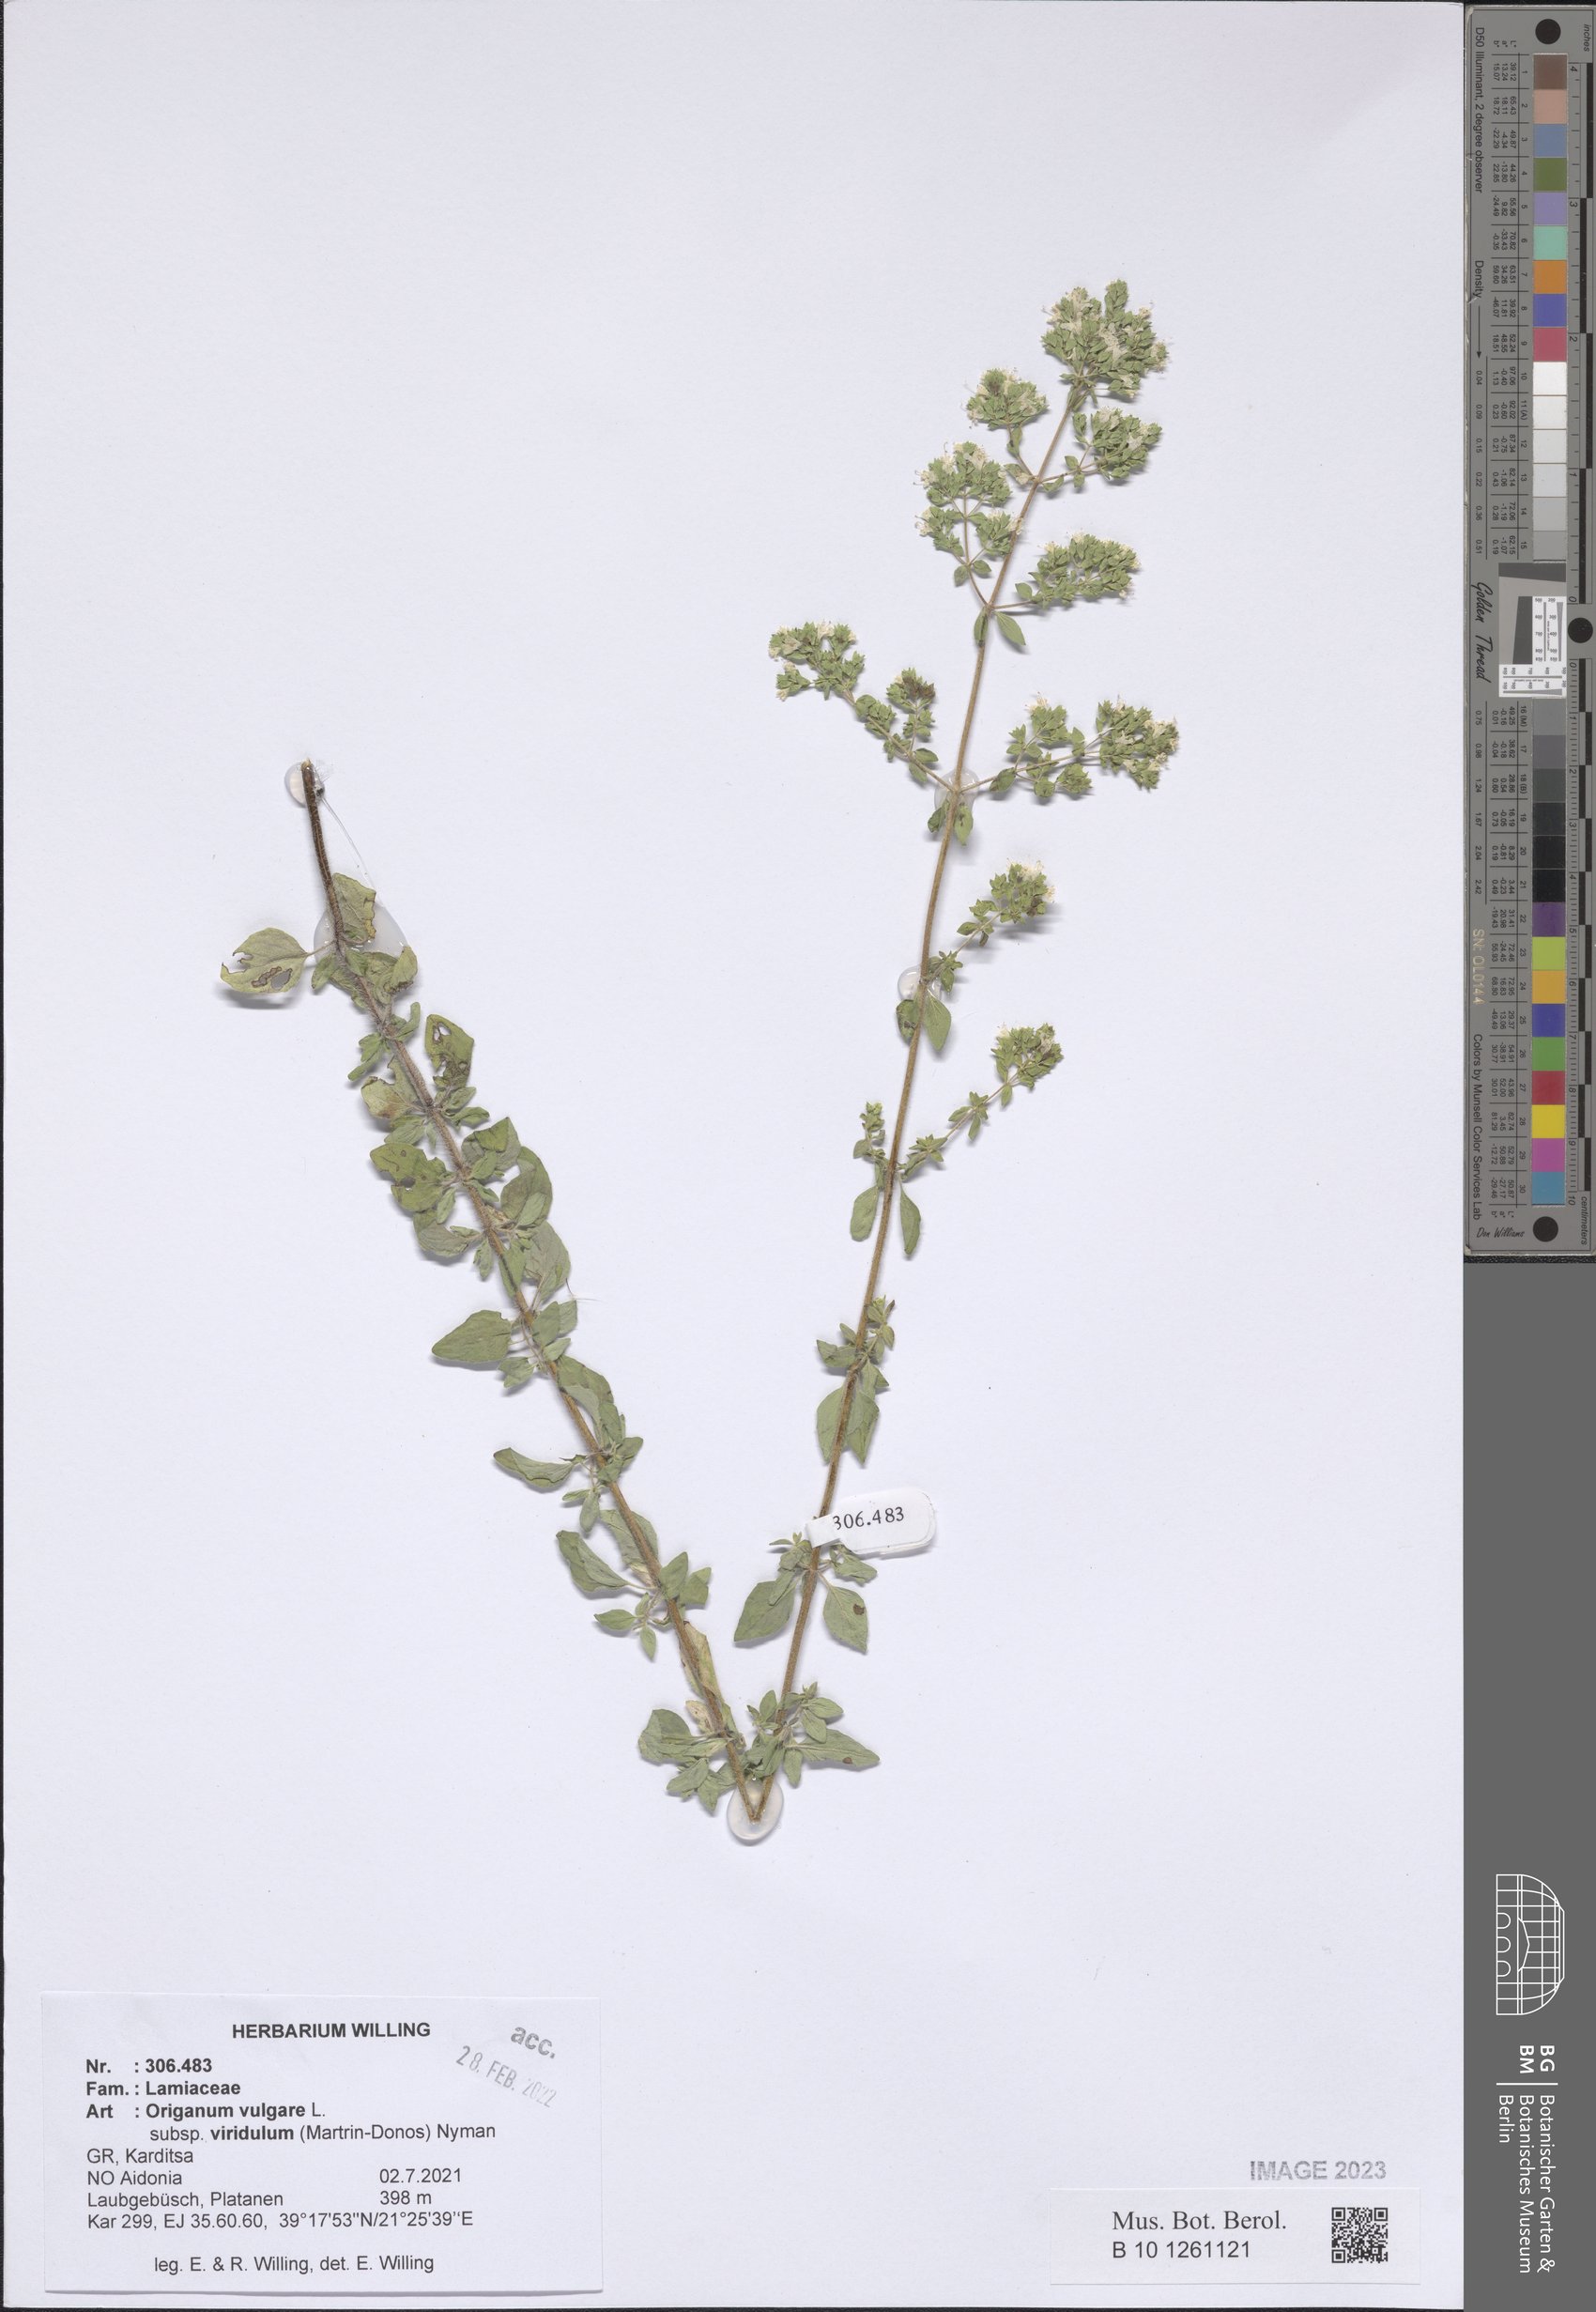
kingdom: Plantae
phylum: Tracheophyta
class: Magnoliopsida
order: Lamiales
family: Lamiaceae
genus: Origanum
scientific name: Origanum vulgare
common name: Wild marjoram
